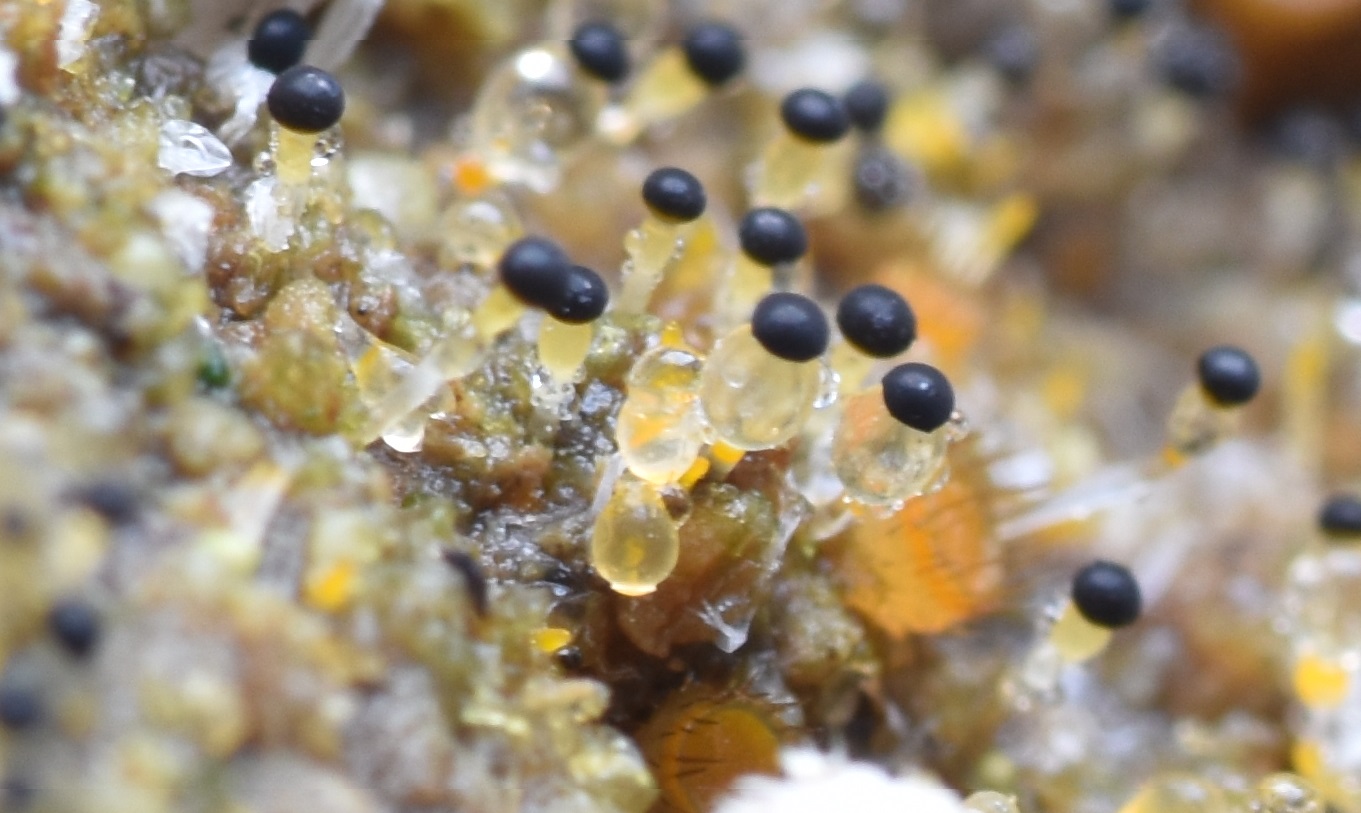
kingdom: Fungi
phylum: Mucoromycota
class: Mucoromycetes
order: Mucorales
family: Pilobolaceae
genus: Pilobolus
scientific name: Pilobolus crystallinus
